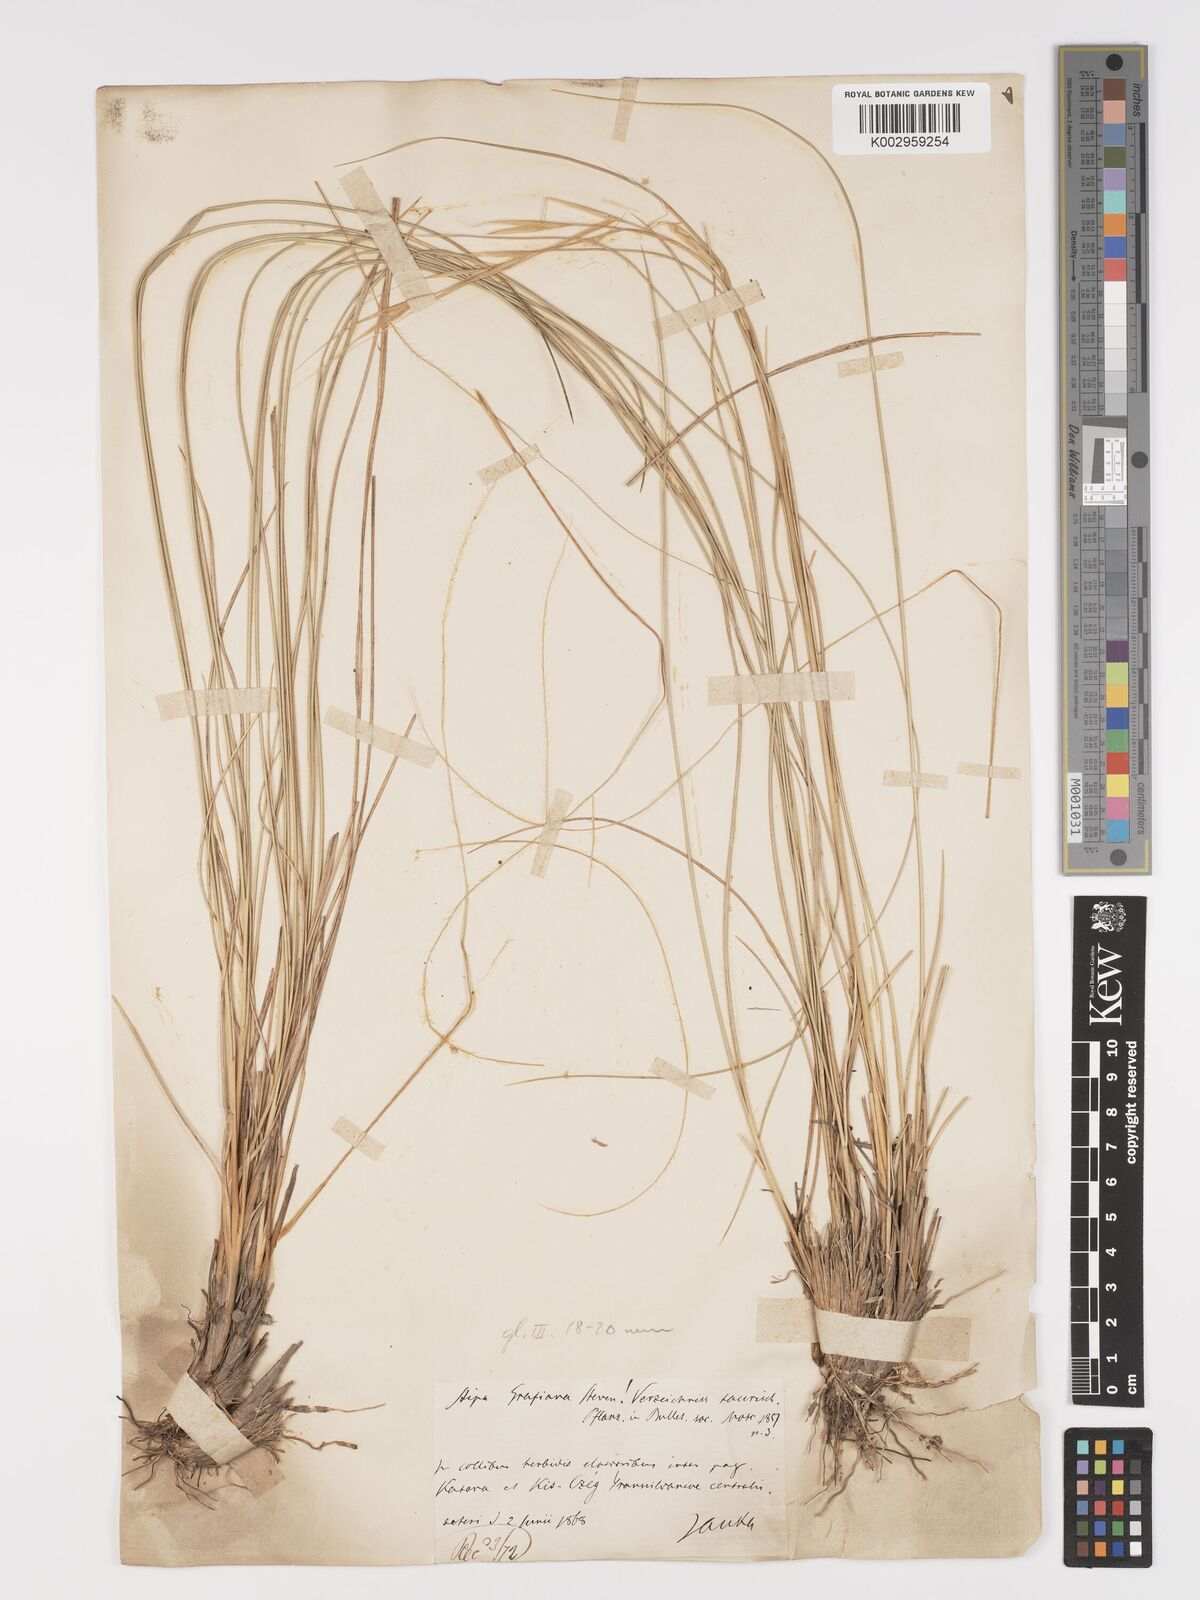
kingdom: Plantae
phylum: Tracheophyta
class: Liliopsida
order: Poales
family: Poaceae
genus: Stipa
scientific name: Stipa pulcherrima
